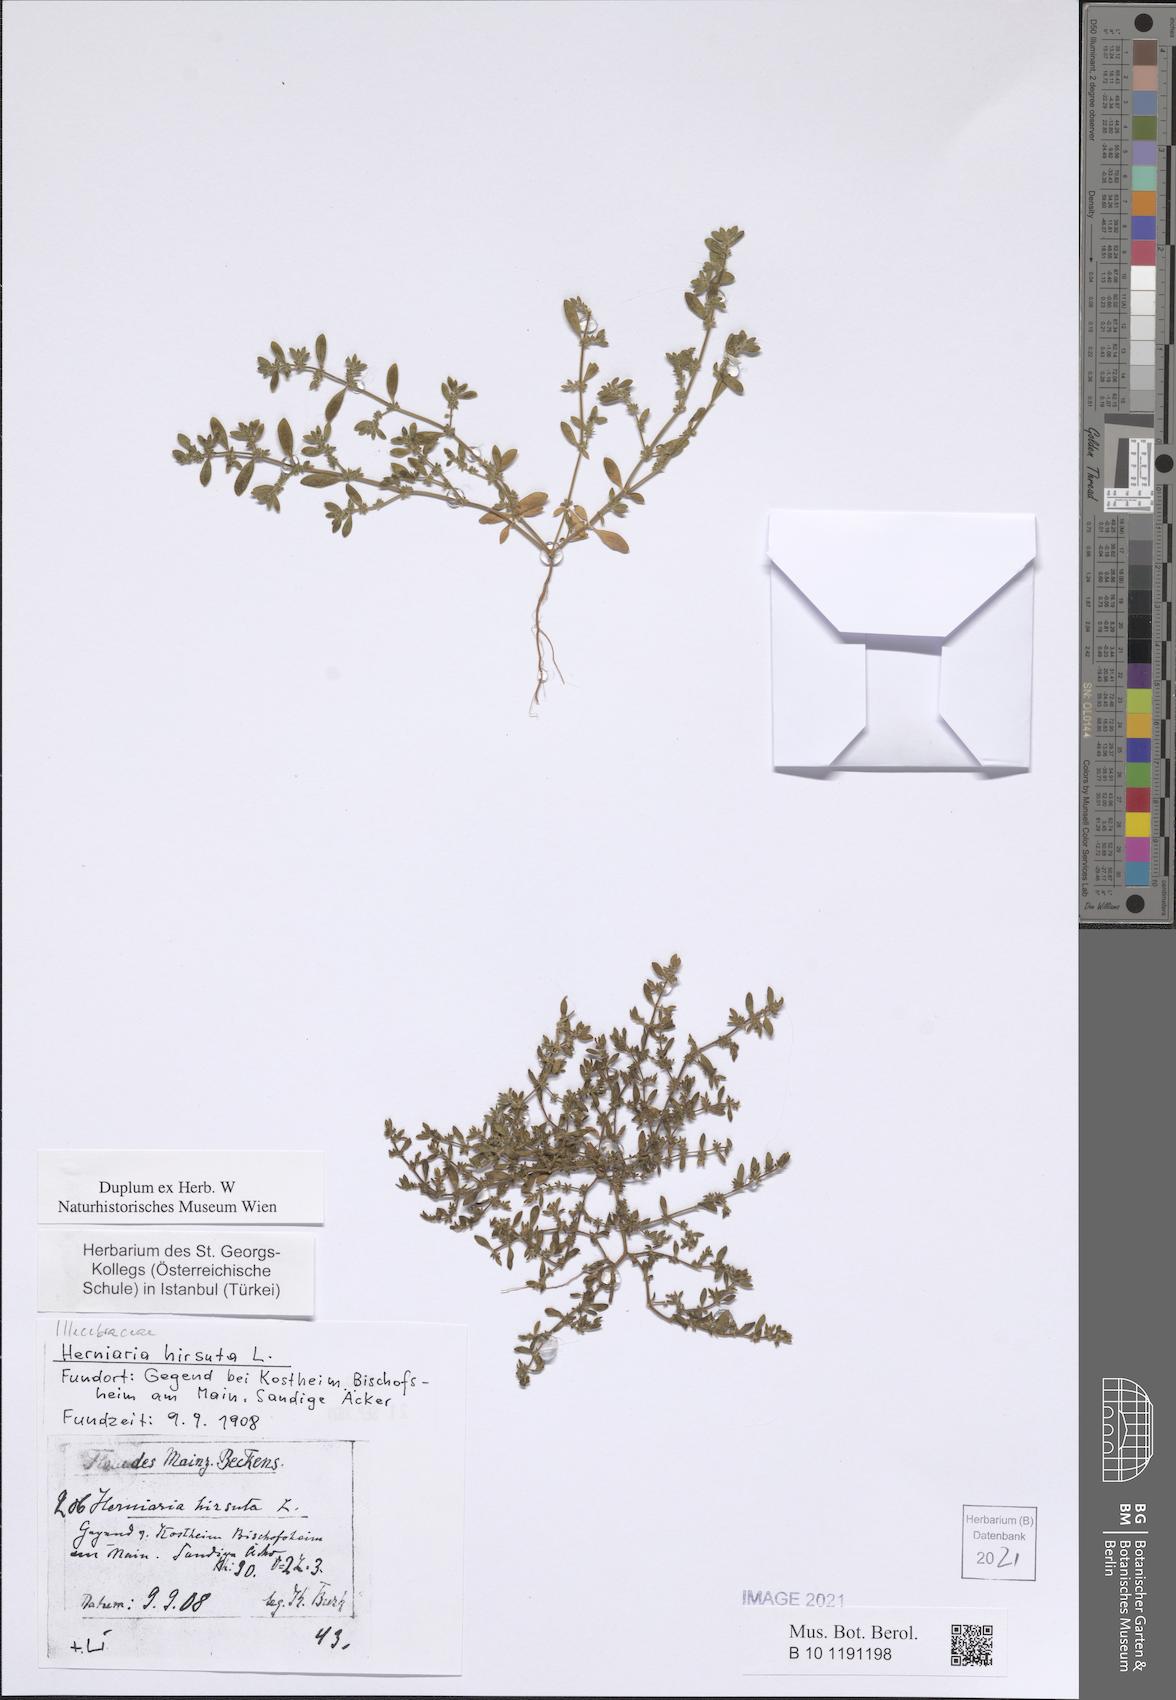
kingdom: Plantae
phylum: Tracheophyta
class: Magnoliopsida
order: Caryophyllales
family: Caryophyllaceae
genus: Herniaria
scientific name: Herniaria hirsuta
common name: Hairy rupturewort
